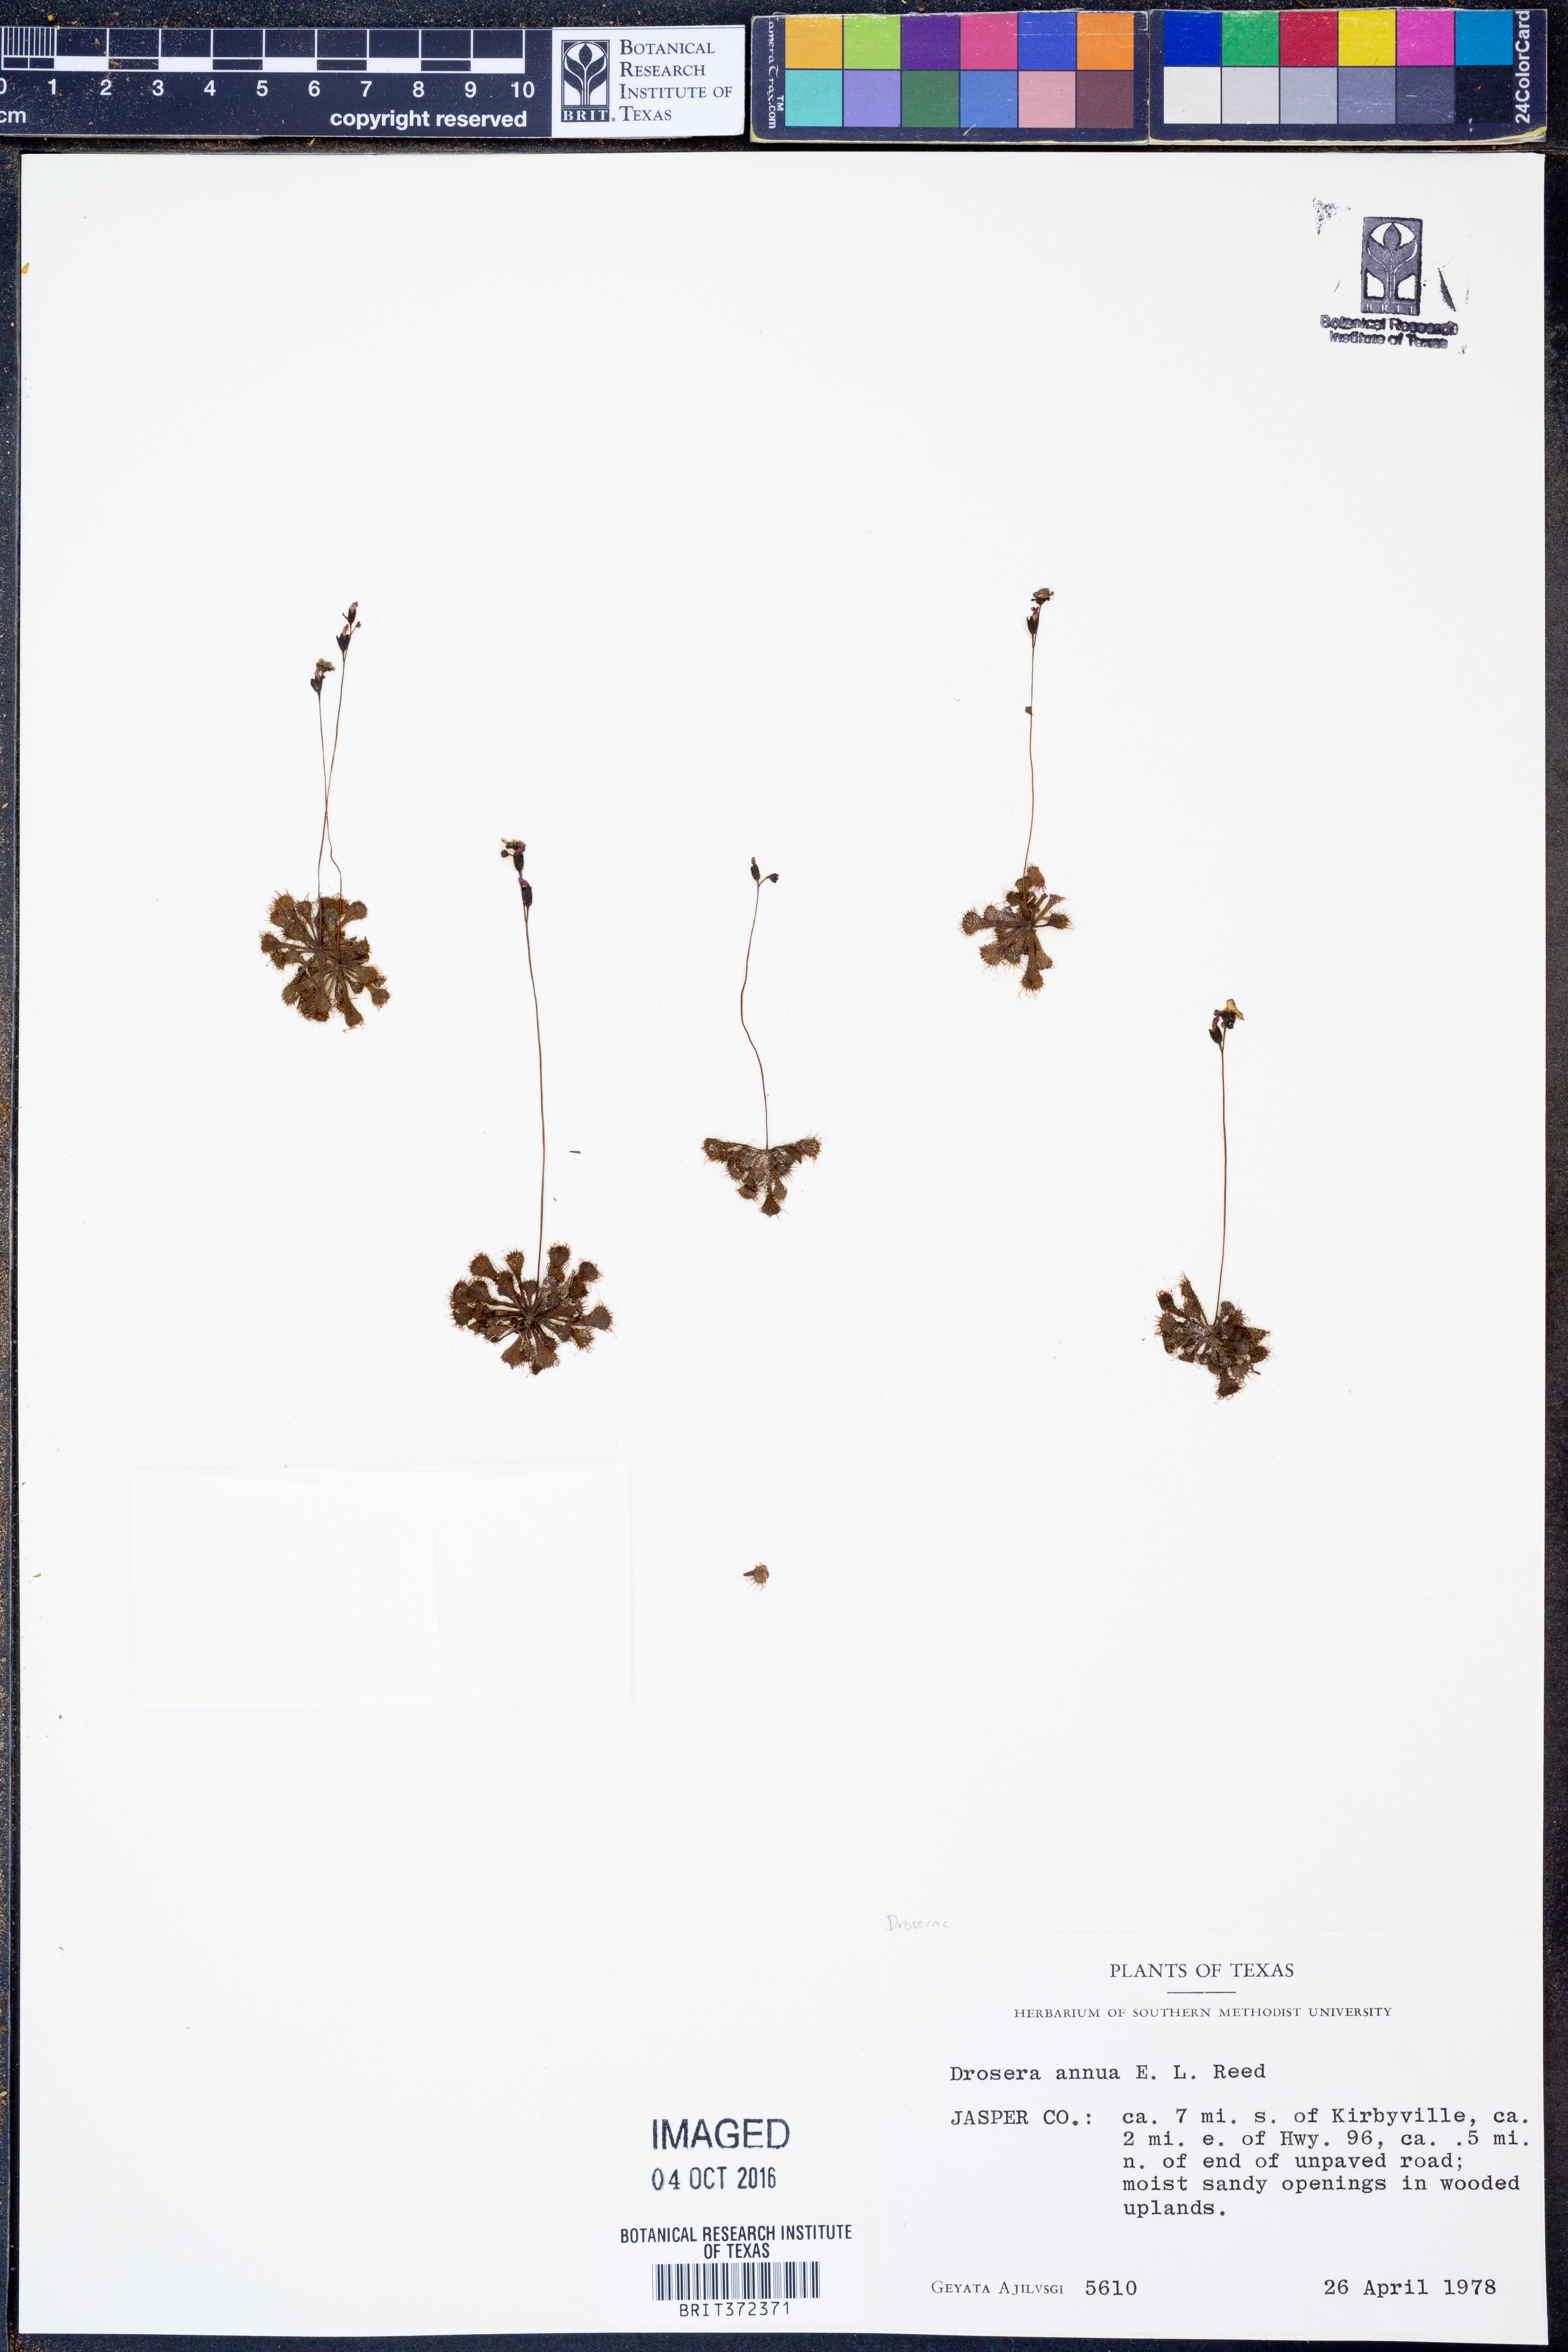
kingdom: Plantae
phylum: Tracheophyta
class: Magnoliopsida
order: Caryophyllales
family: Droseraceae
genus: Drosera
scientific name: Drosera brevifolia
